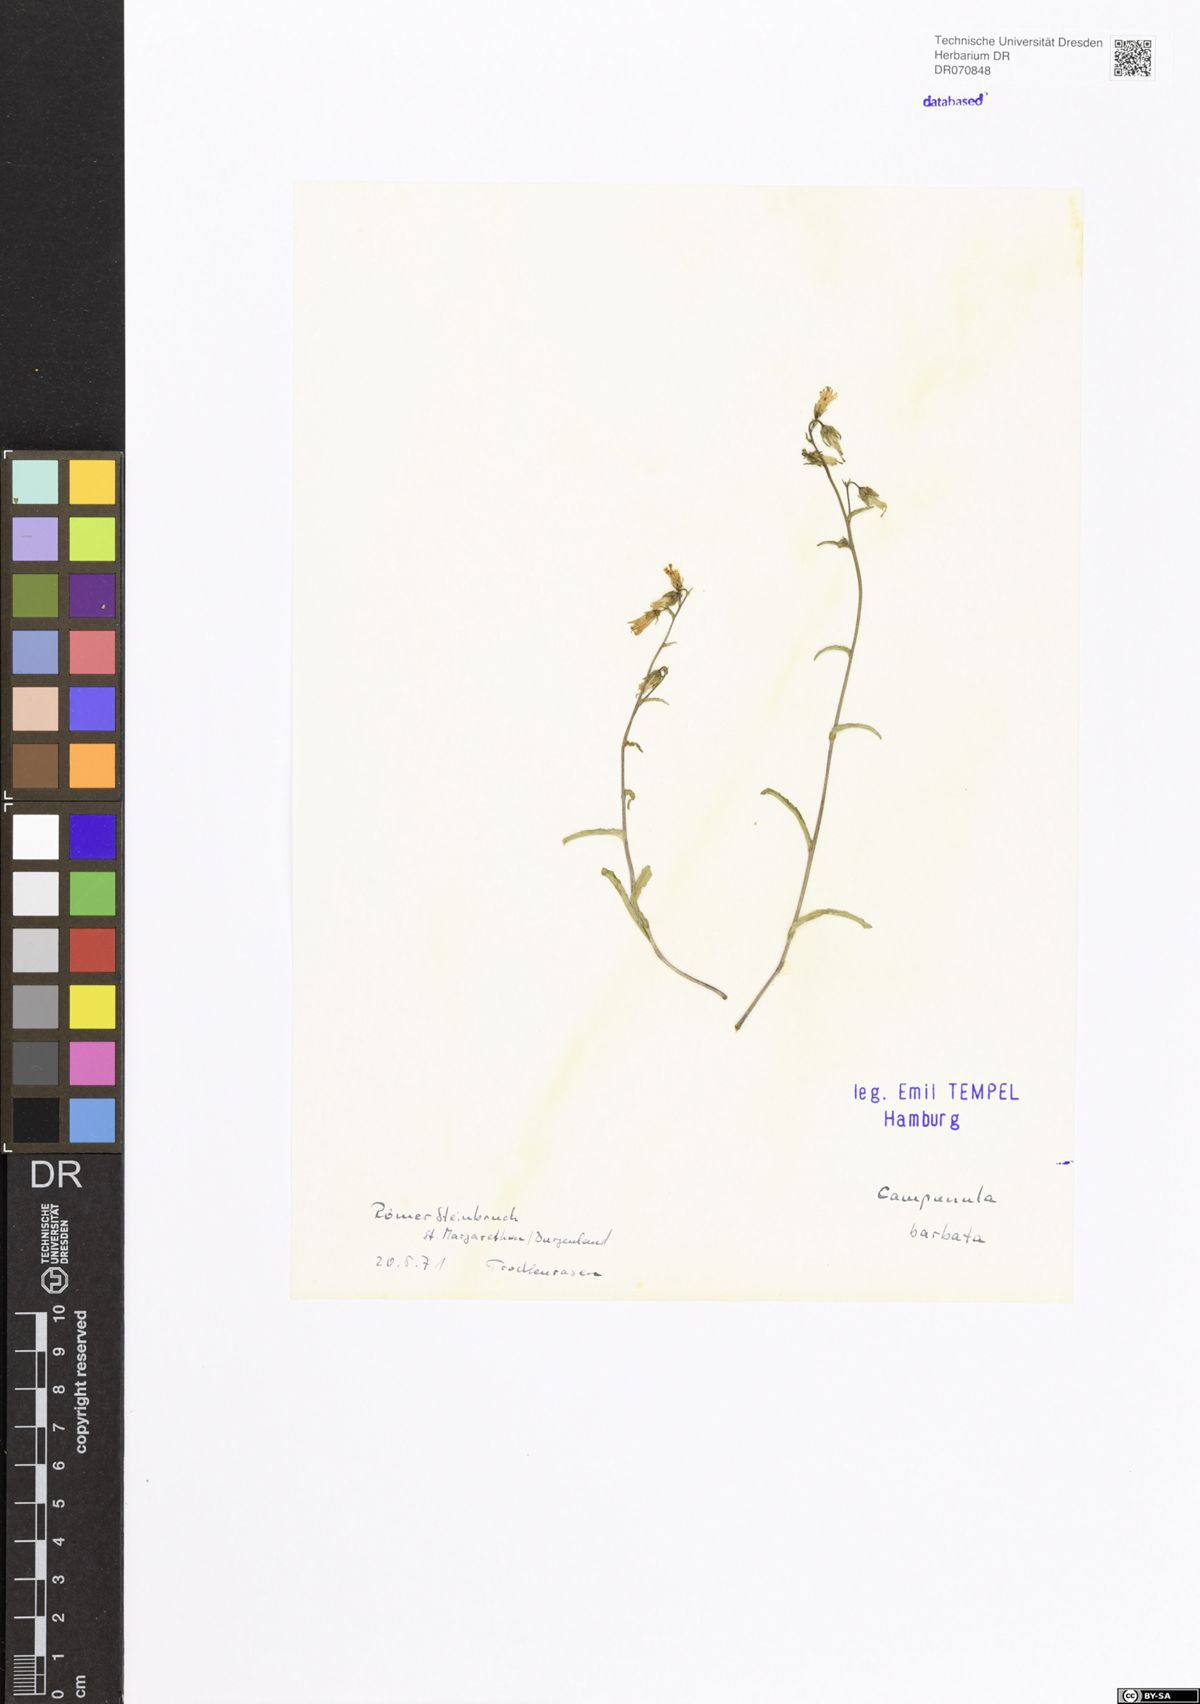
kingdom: Plantae
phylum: Tracheophyta
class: Magnoliopsida
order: Asterales
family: Campanulaceae
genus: Campanula
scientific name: Campanula barbata
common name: Bearded bellflower
